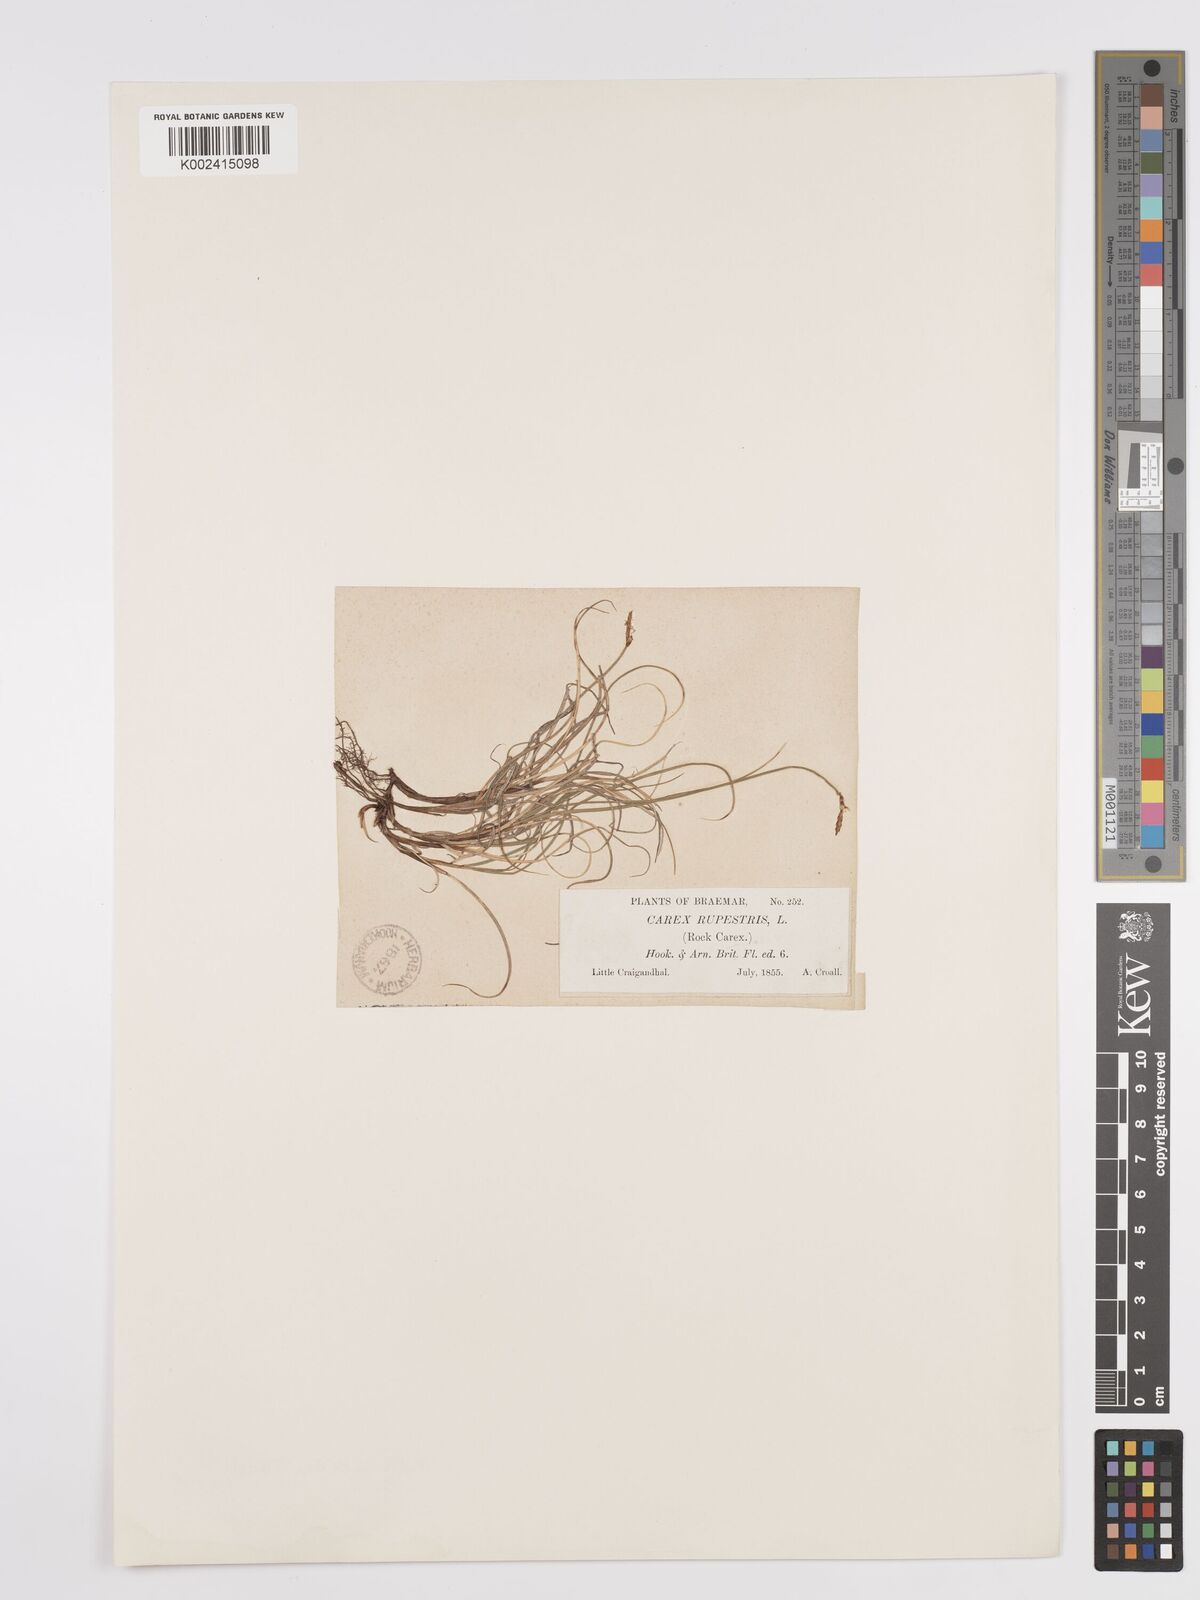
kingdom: Plantae
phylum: Tracheophyta
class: Liliopsida
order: Poales
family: Cyperaceae
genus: Carex
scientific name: Carex rupestris
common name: Rock sedge
